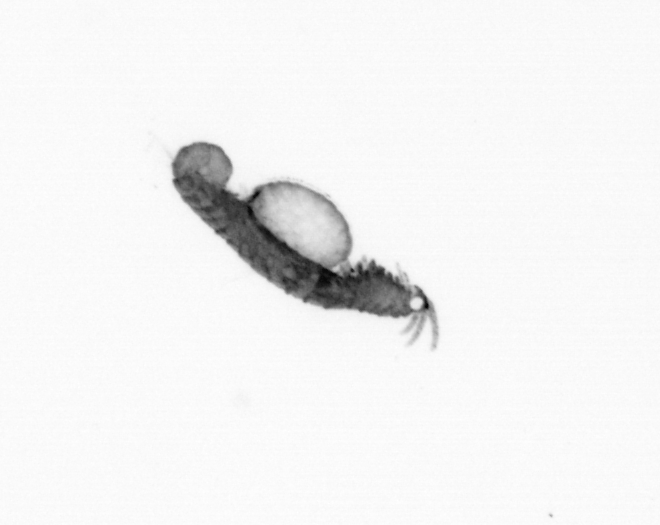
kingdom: Animalia
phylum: Annelida
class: Polychaeta
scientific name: Polychaeta
